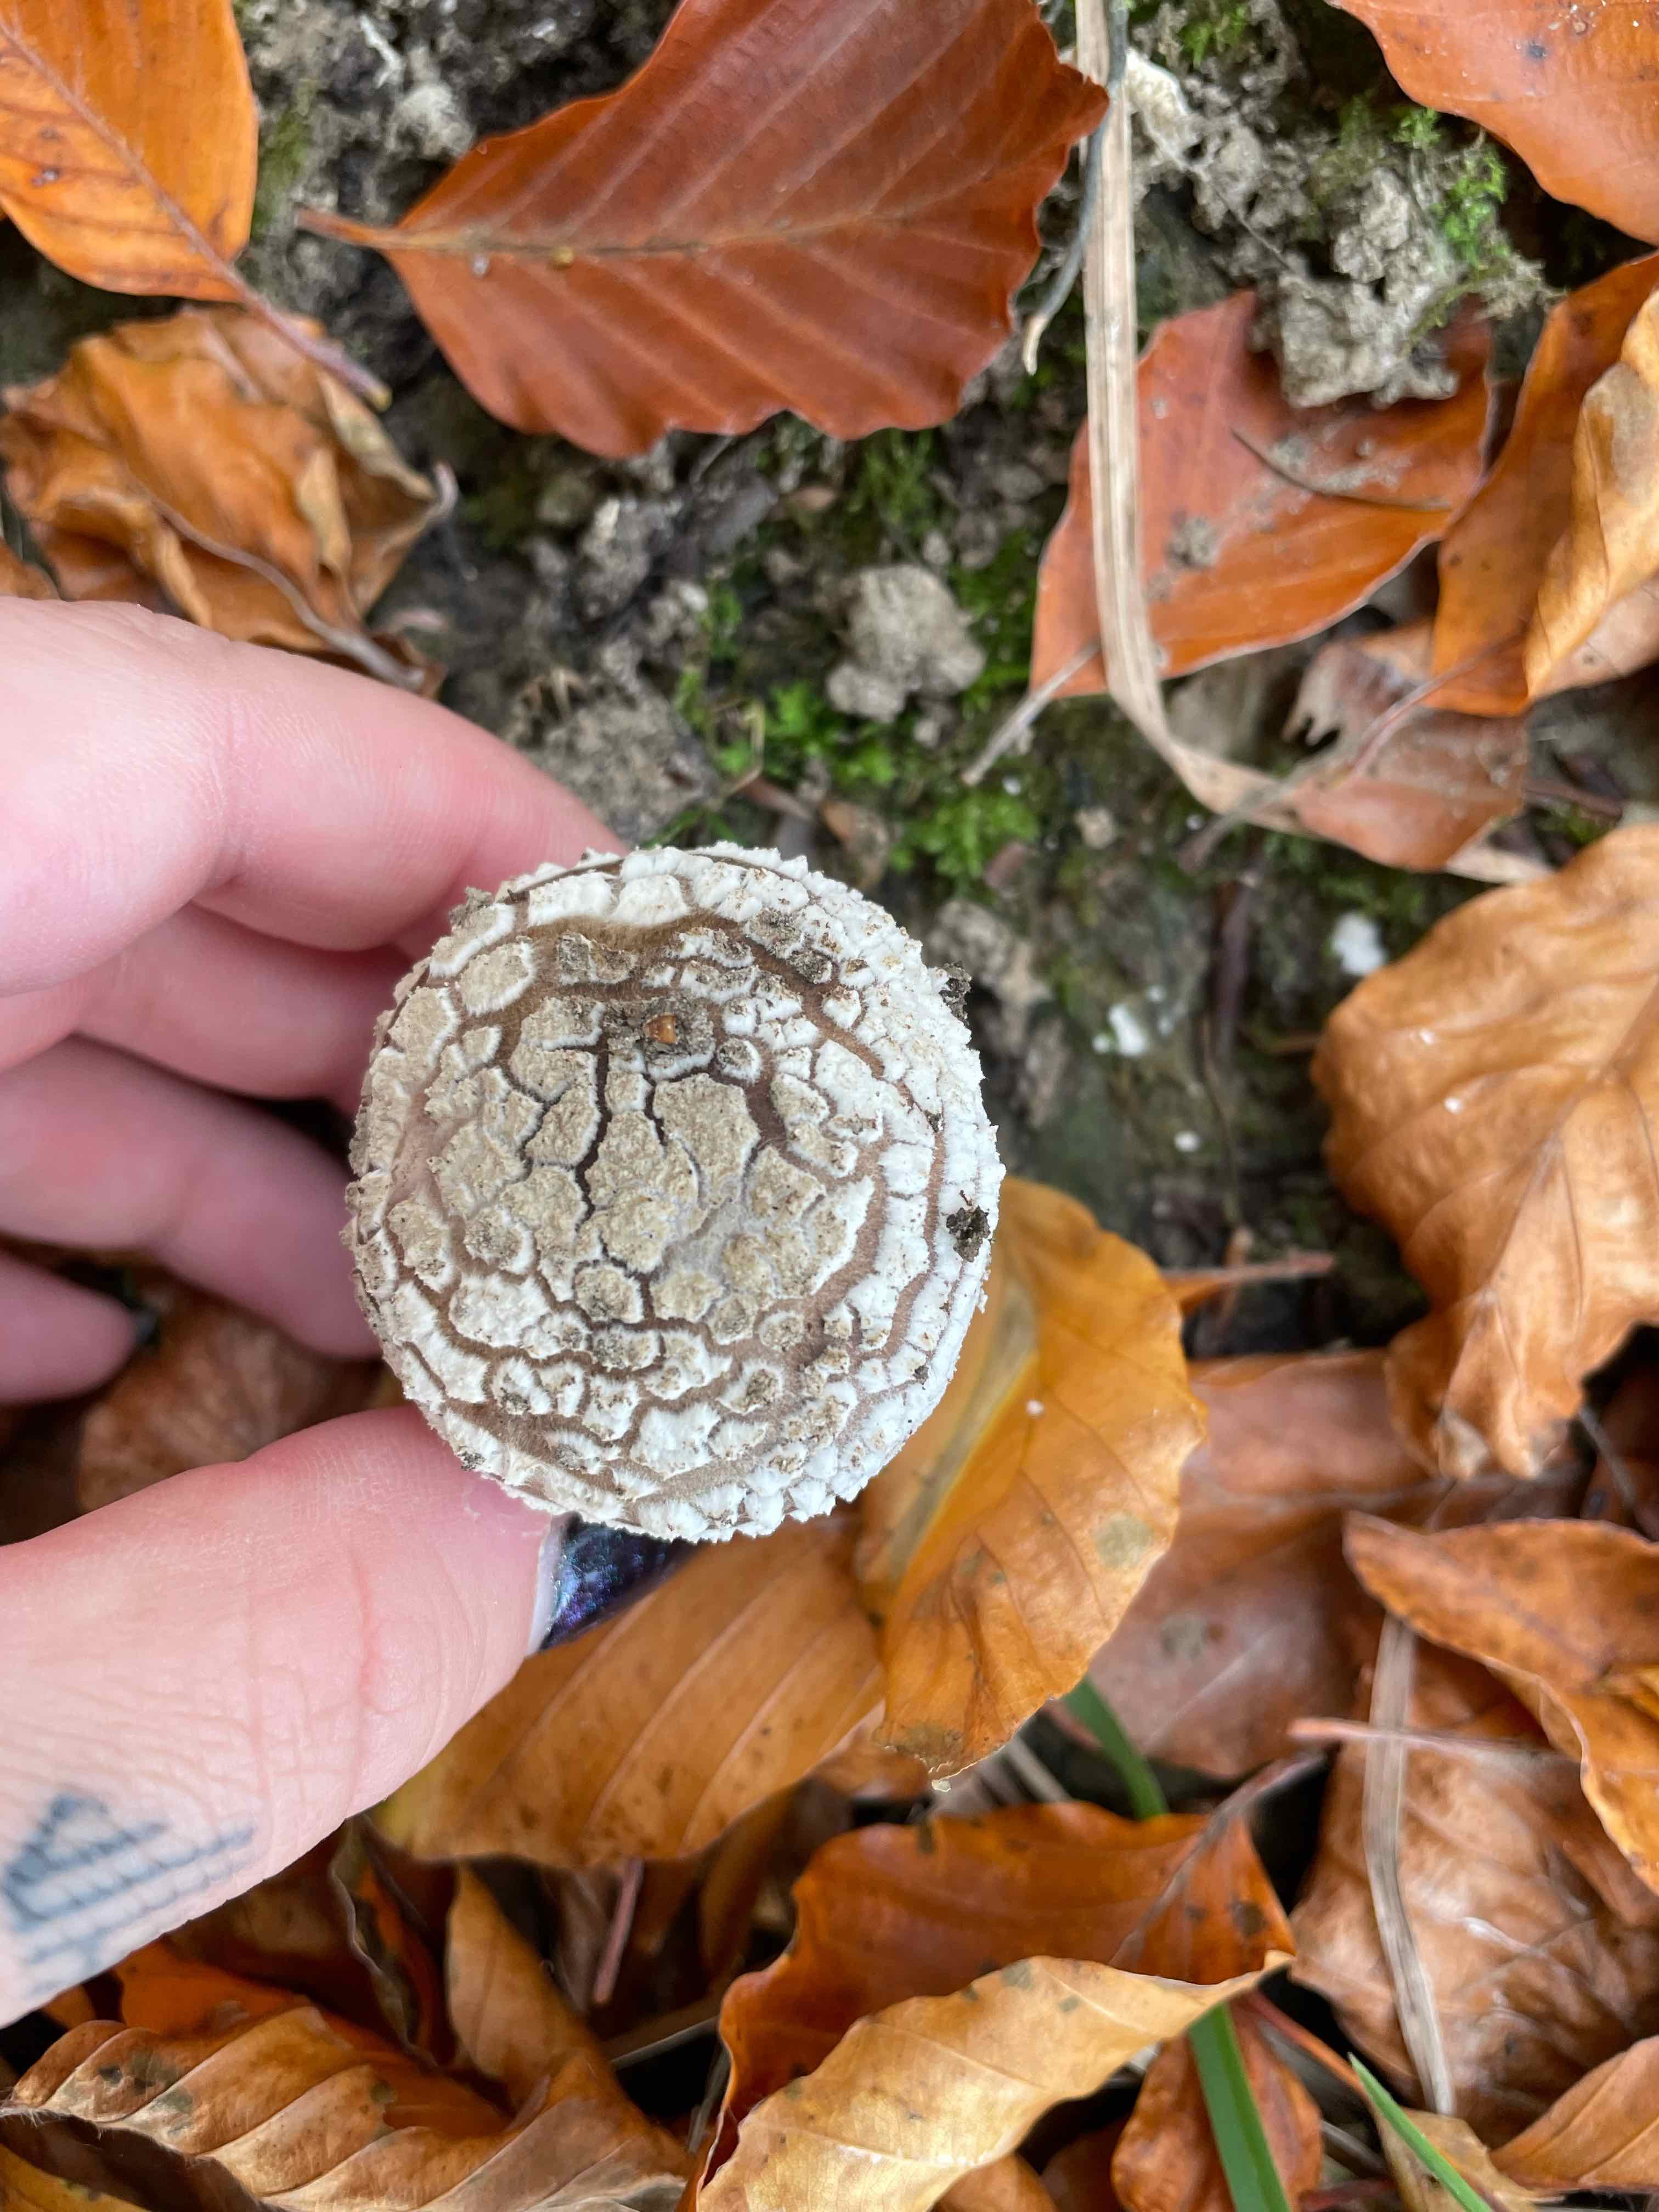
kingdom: Fungi
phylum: Basidiomycota
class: Agaricomycetes
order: Agaricales
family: Amanitaceae
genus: Amanita
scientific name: Amanita
